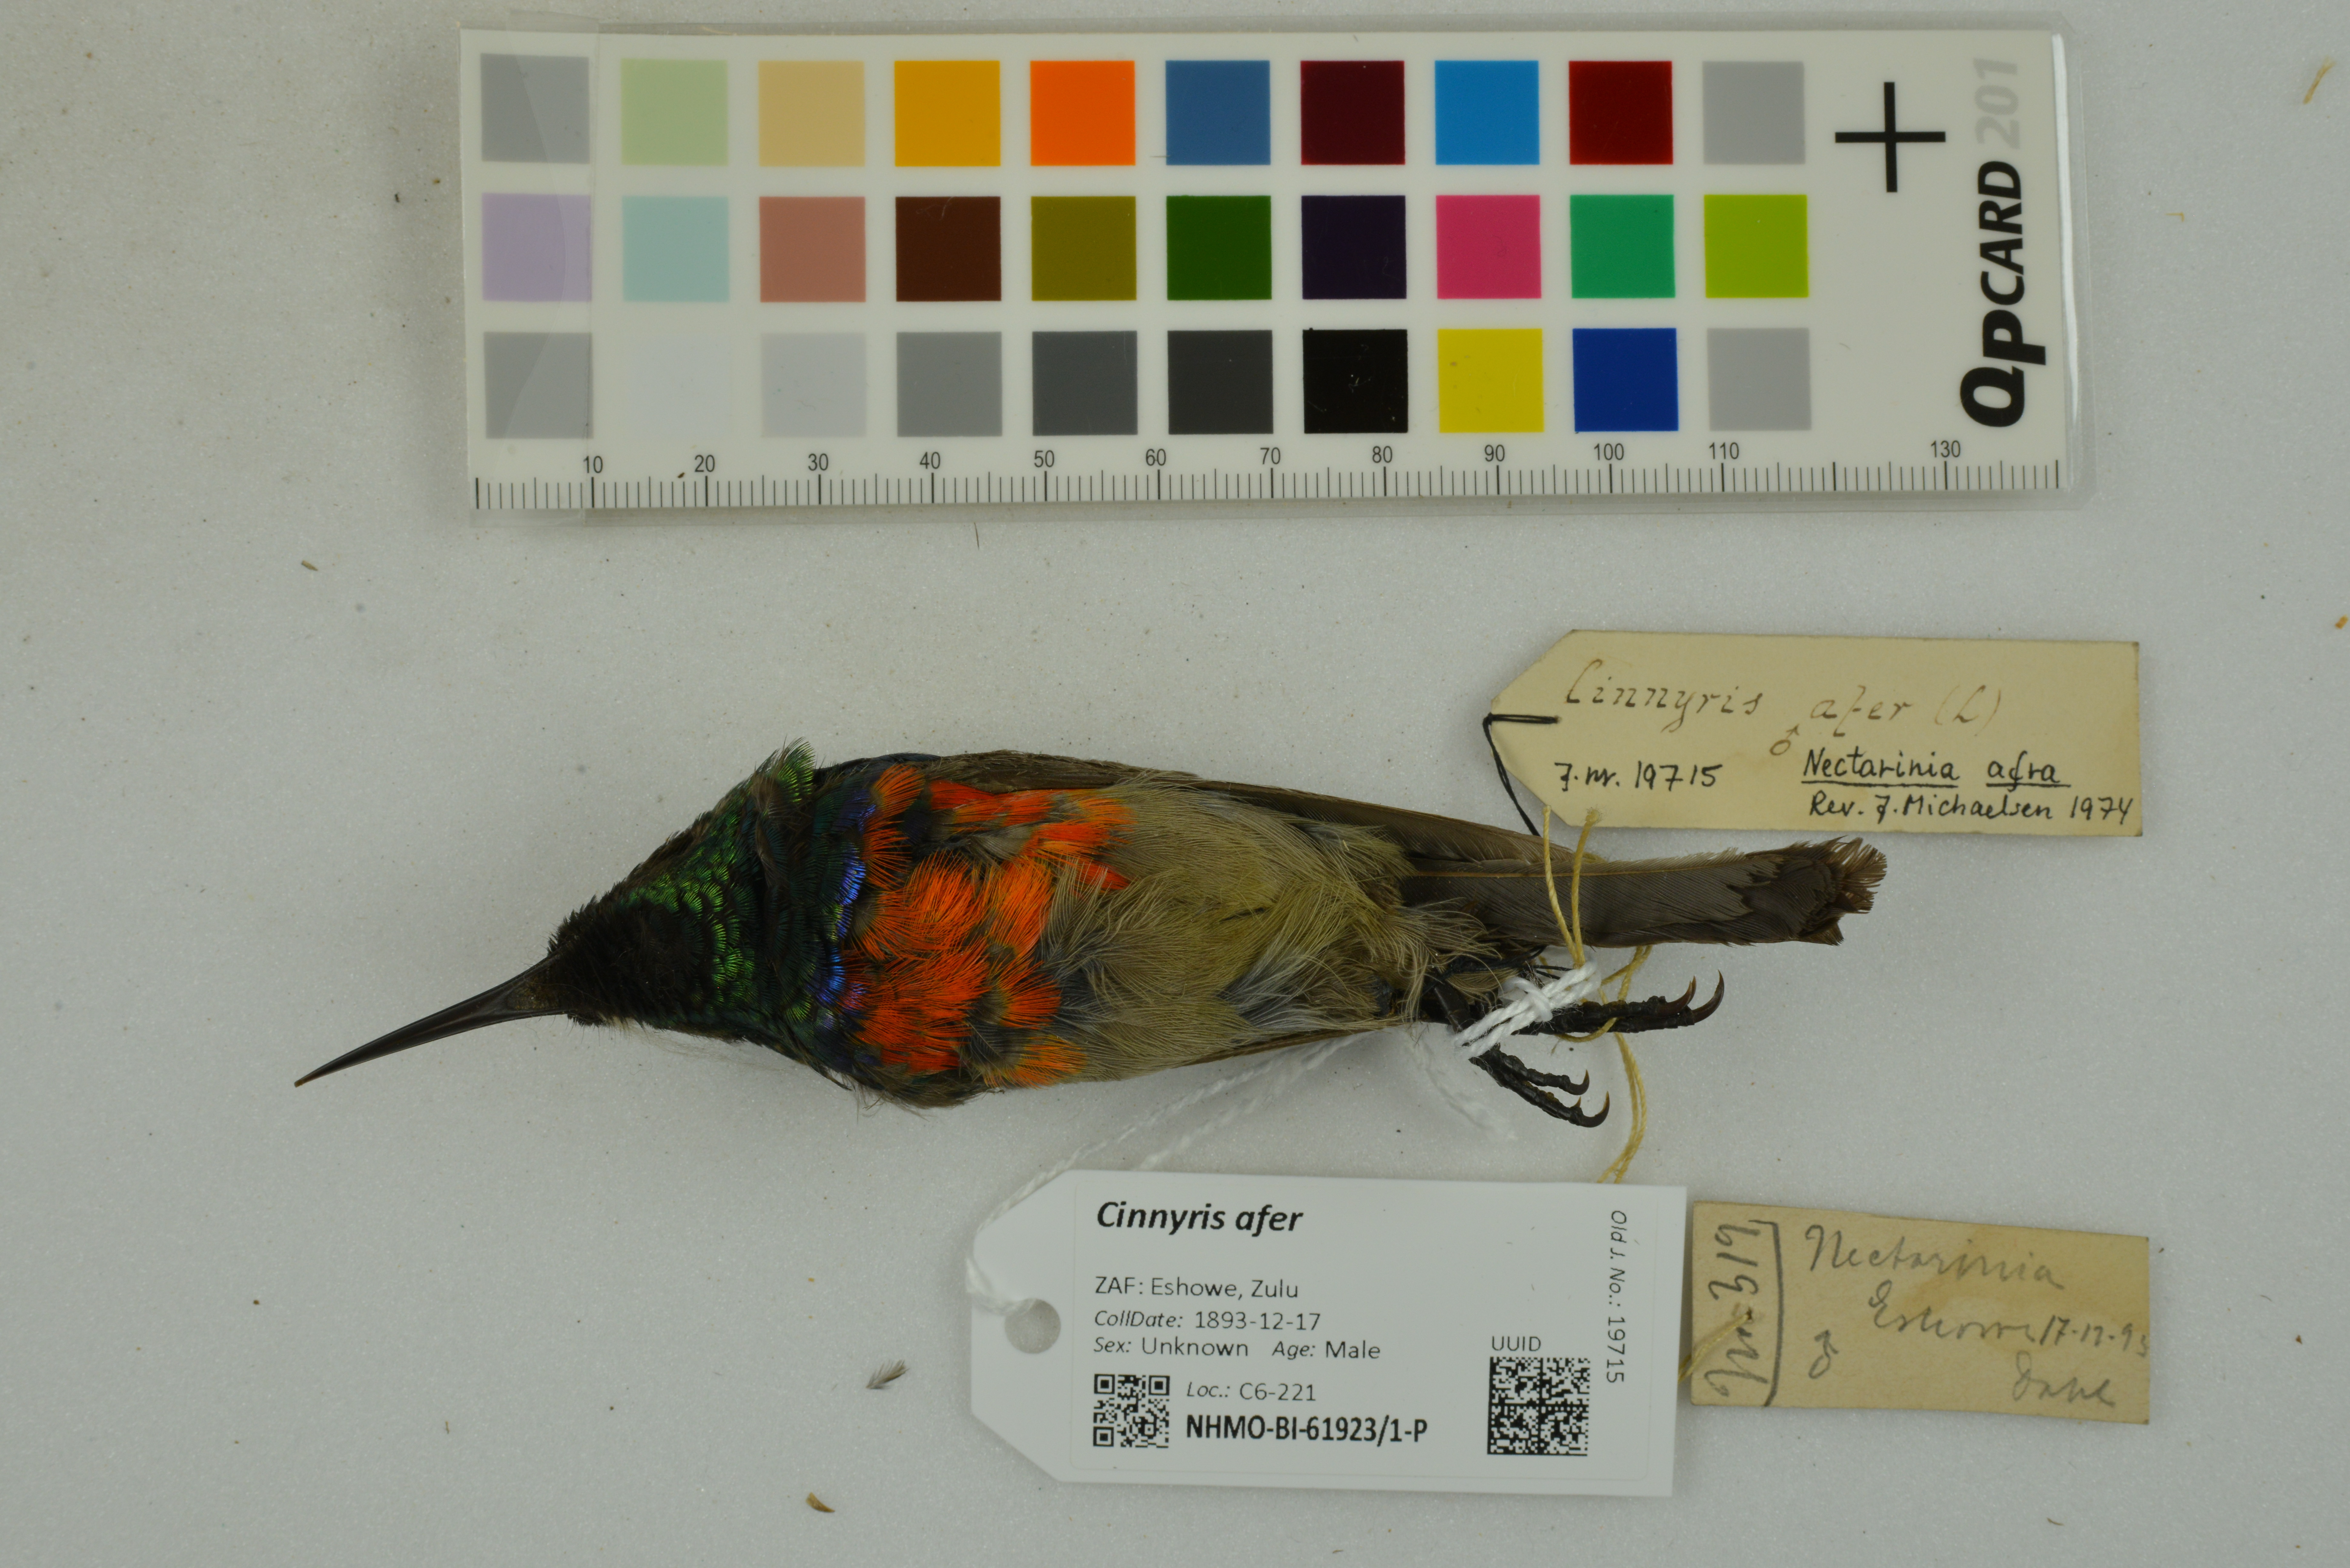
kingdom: Animalia
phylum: Chordata
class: Aves
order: Passeriformes
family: Nectariniidae
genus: Cinnyris
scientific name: Cinnyris afer
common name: Greater double-collared sunbird
